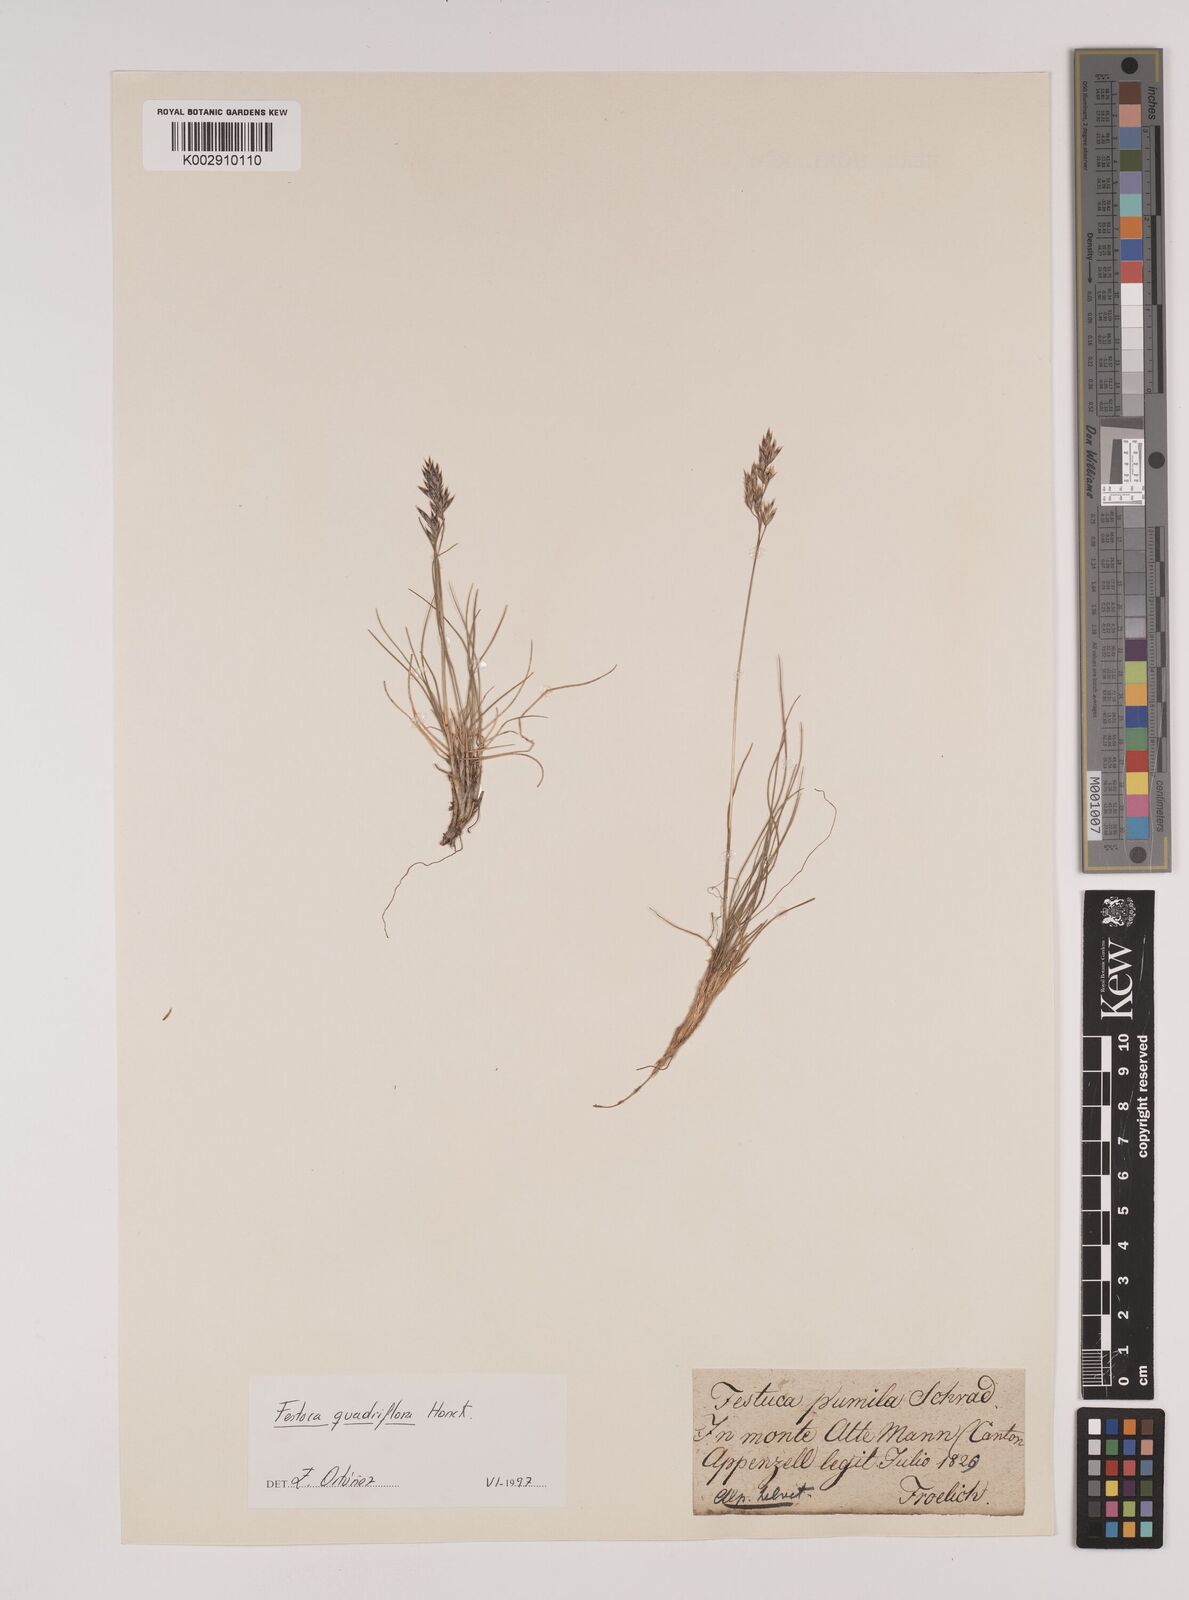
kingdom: Plantae
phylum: Tracheophyta
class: Liliopsida
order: Poales
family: Poaceae
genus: Festuca
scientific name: Festuca
